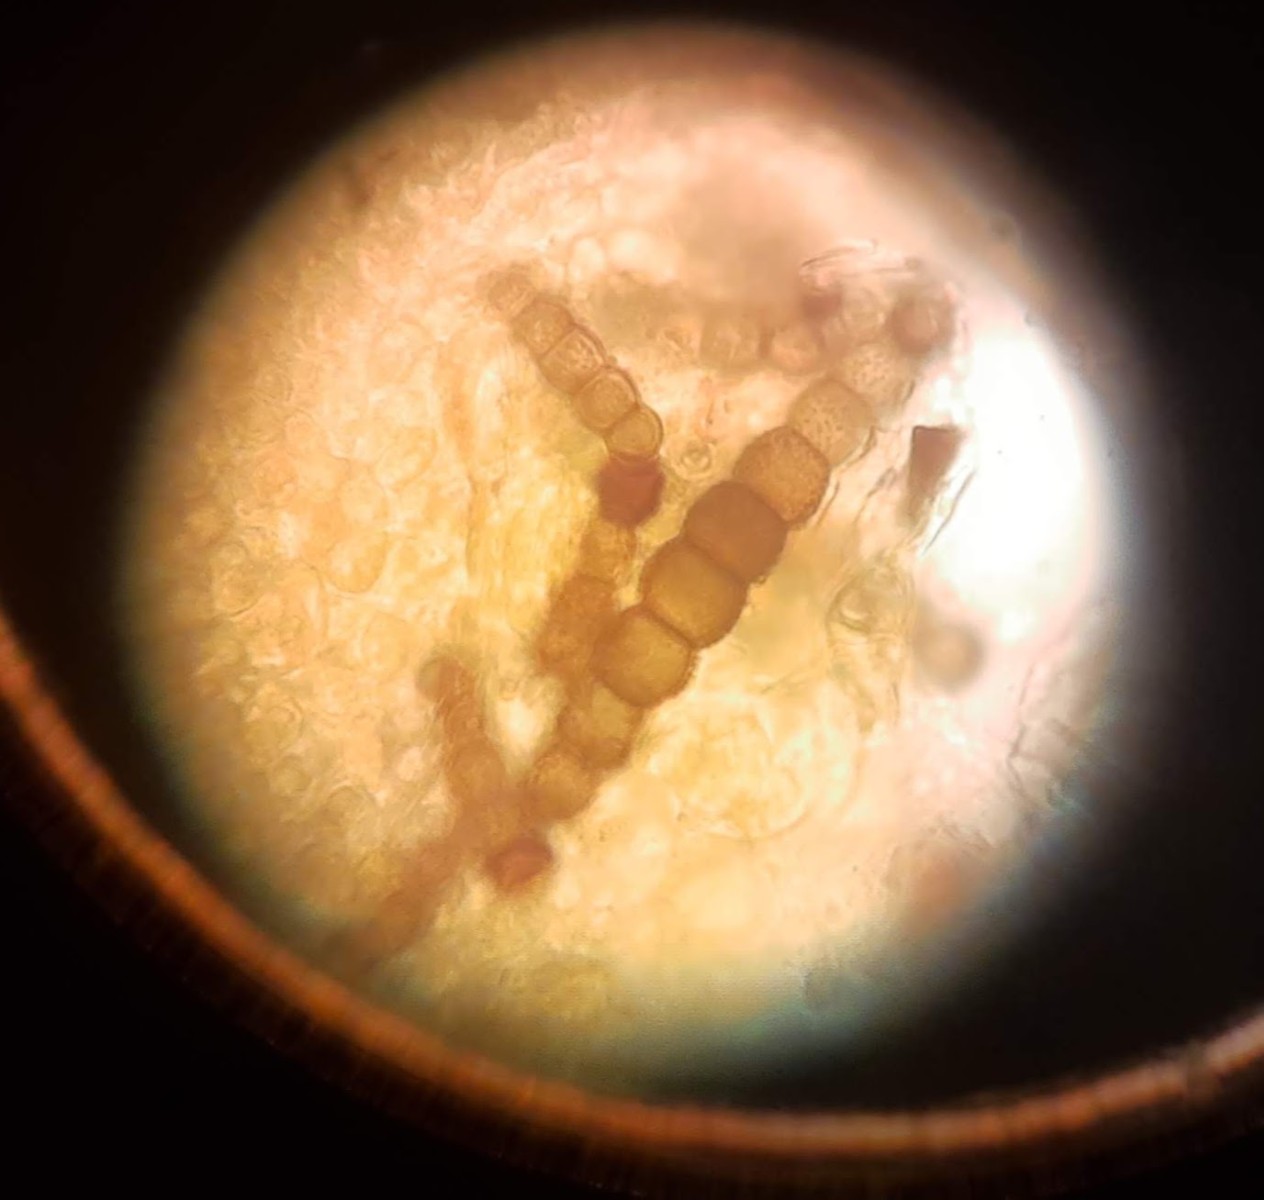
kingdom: Fungi
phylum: Ascomycota
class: Dothideomycetes
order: Pleosporales
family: Torulaceae
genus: Torula
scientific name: Torula herbarum
